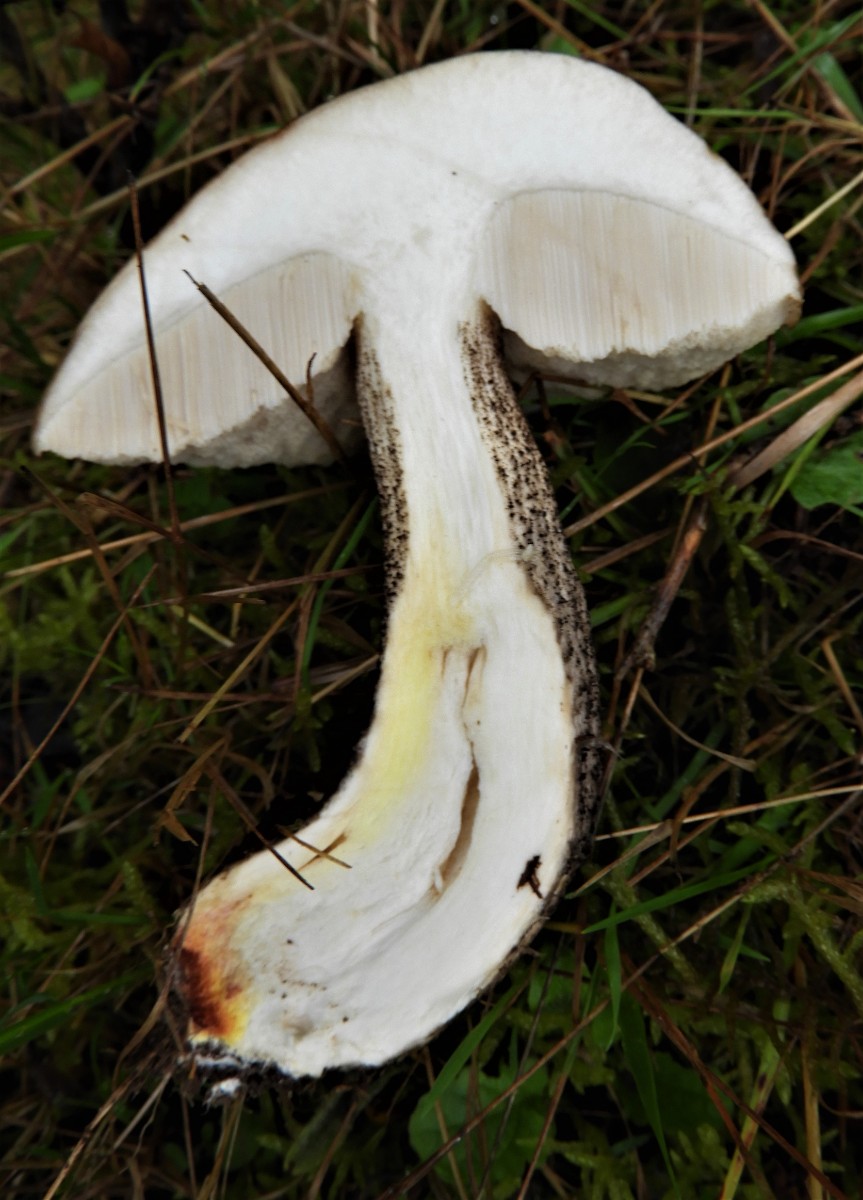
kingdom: Fungi
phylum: Basidiomycota
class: Agaricomycetes
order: Boletales
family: Boletaceae
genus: Leccinum
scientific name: Leccinum scabrum
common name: brun skælrørhat
